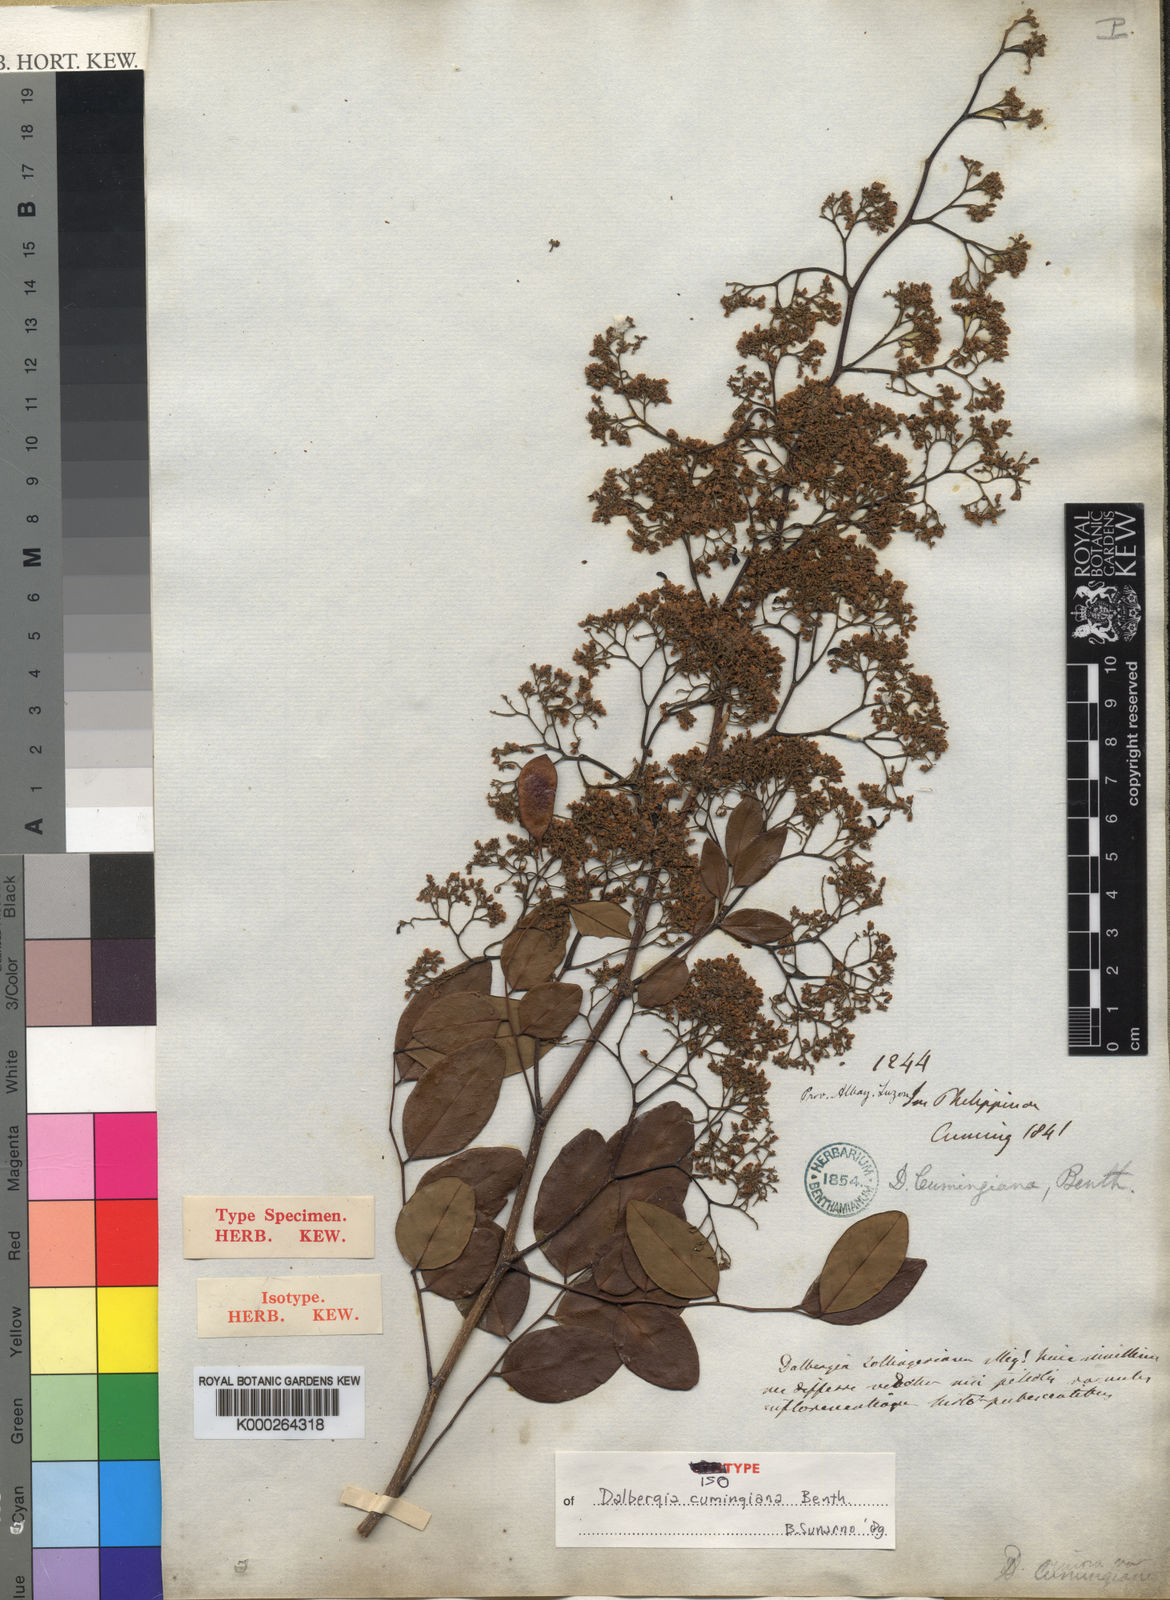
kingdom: Plantae
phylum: Tracheophyta
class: Magnoliopsida
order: Fabales
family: Fabaceae
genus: Dalbergia
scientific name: Dalbergia cumingiana
